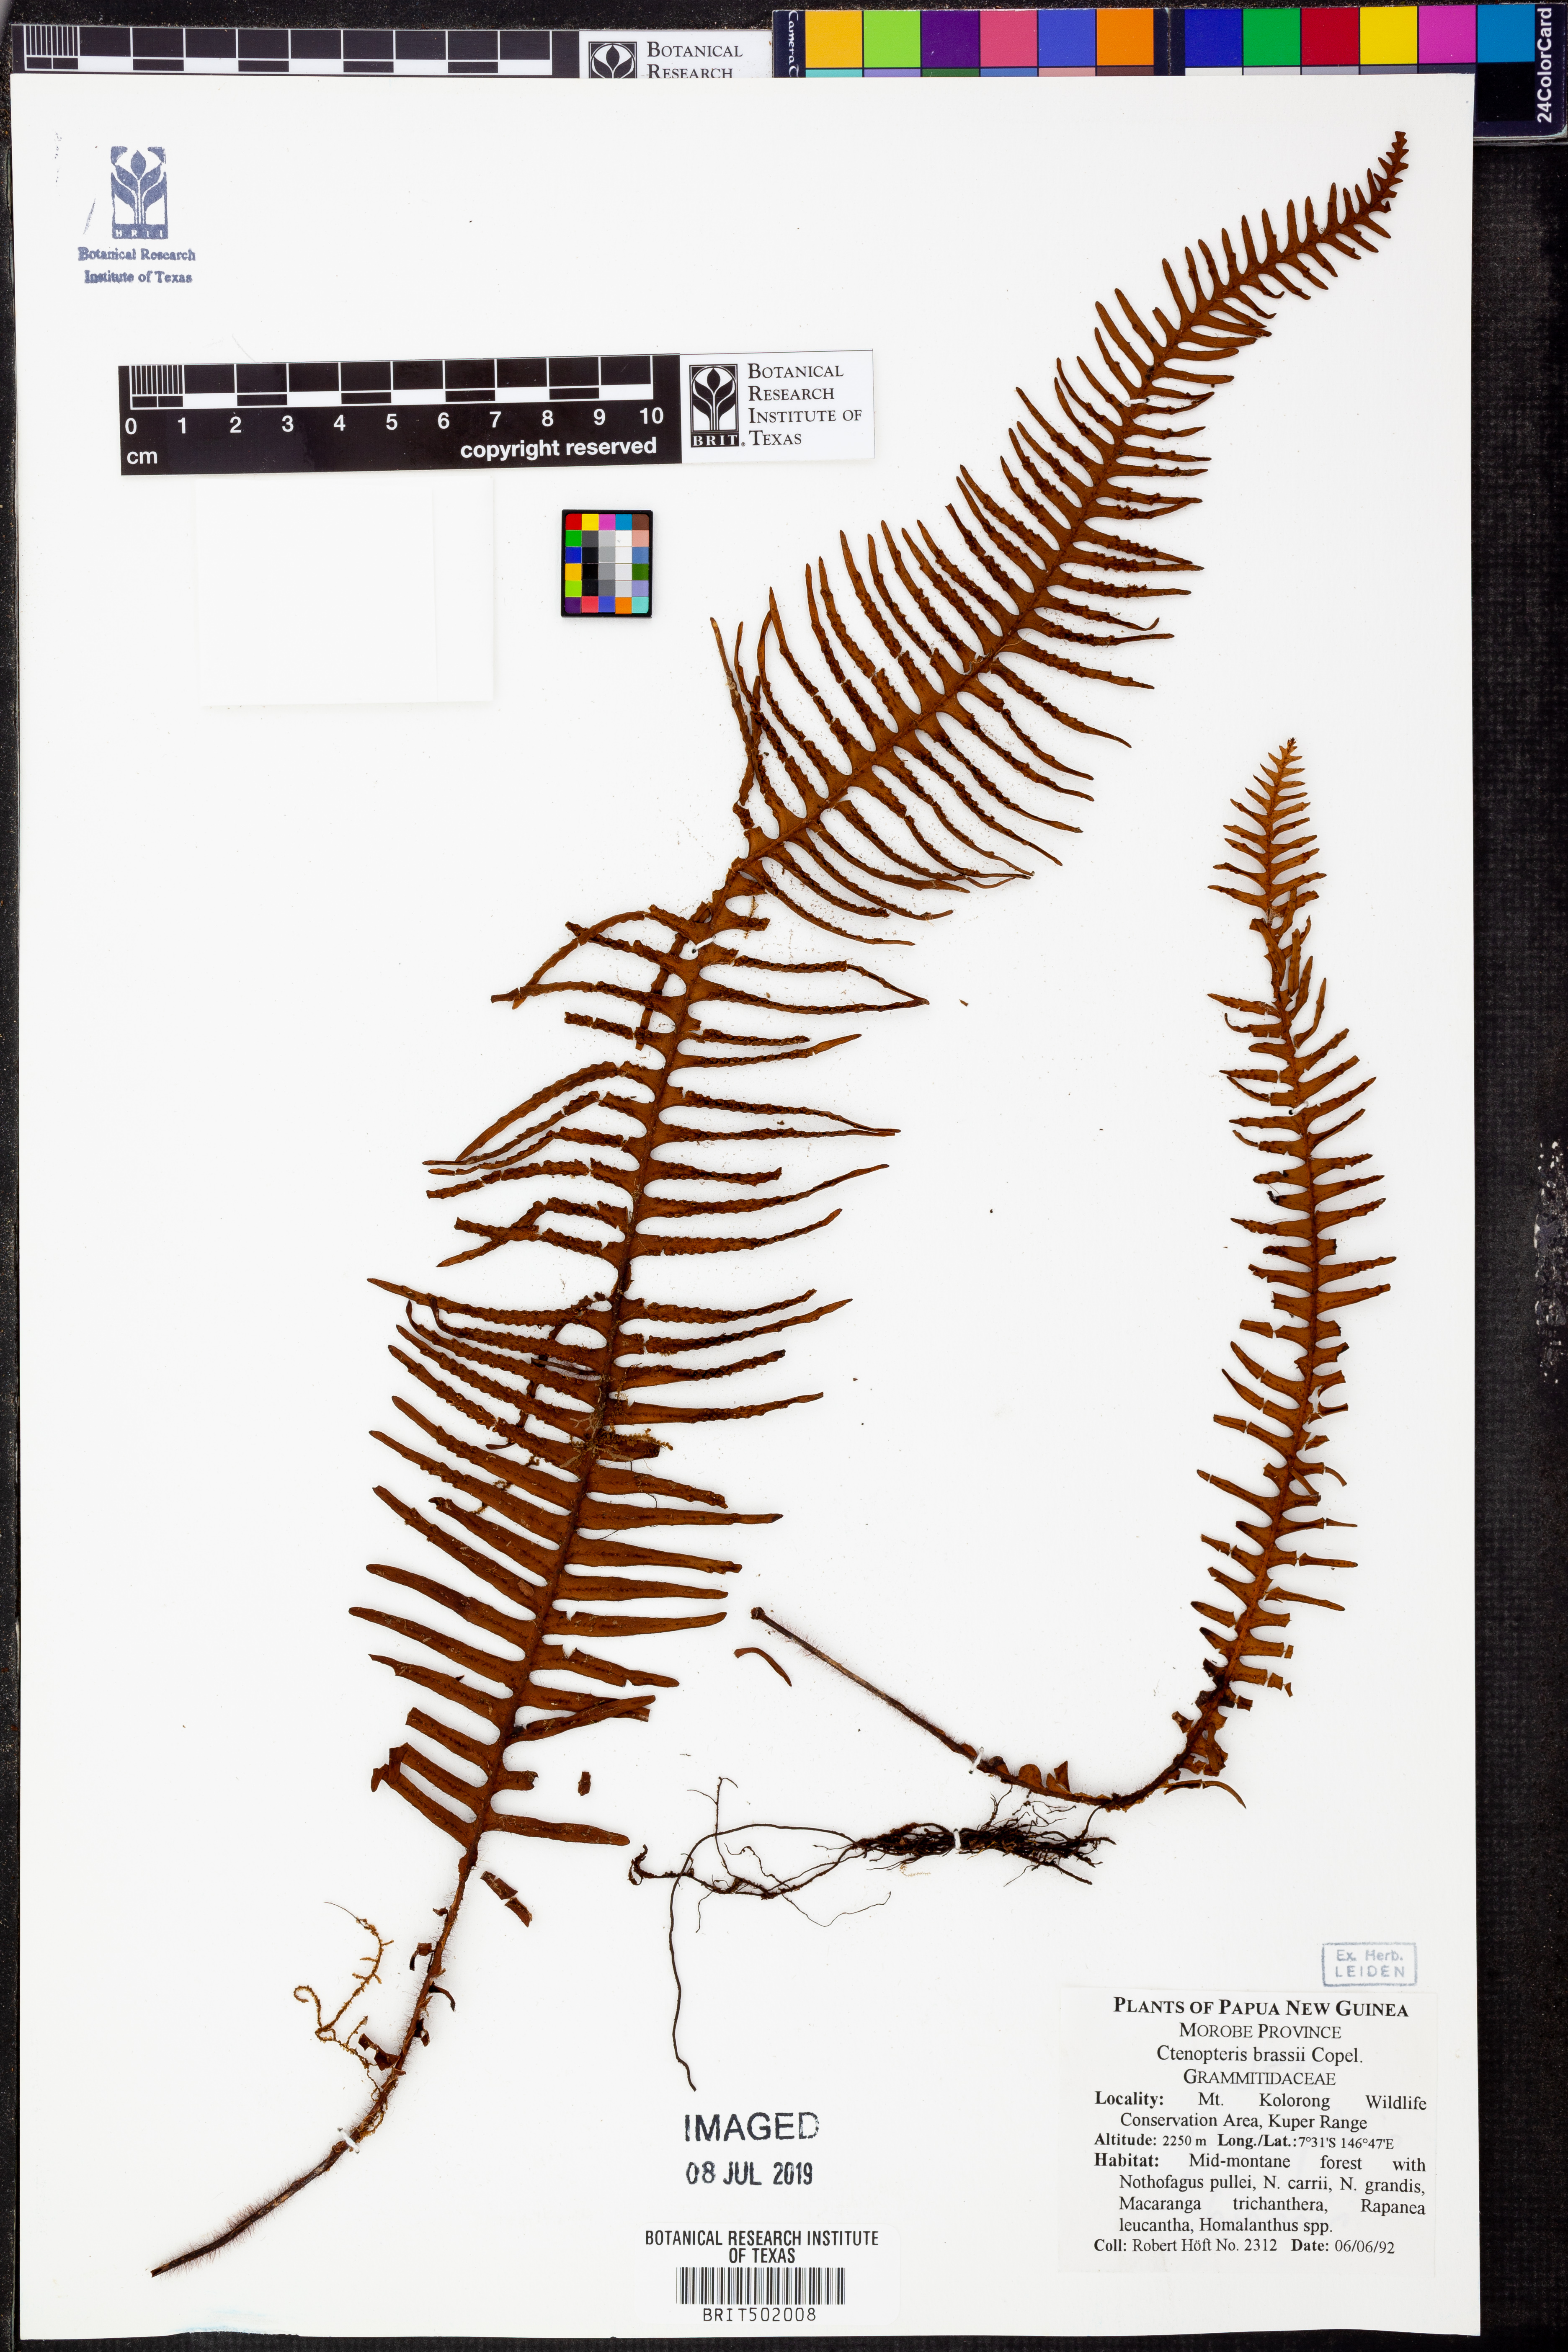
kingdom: Plantae
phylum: Tracheophyta
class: Polypodiopsida
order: Polypodiales
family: Polypodiaceae
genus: Prosaptia
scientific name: Prosaptia brassii
